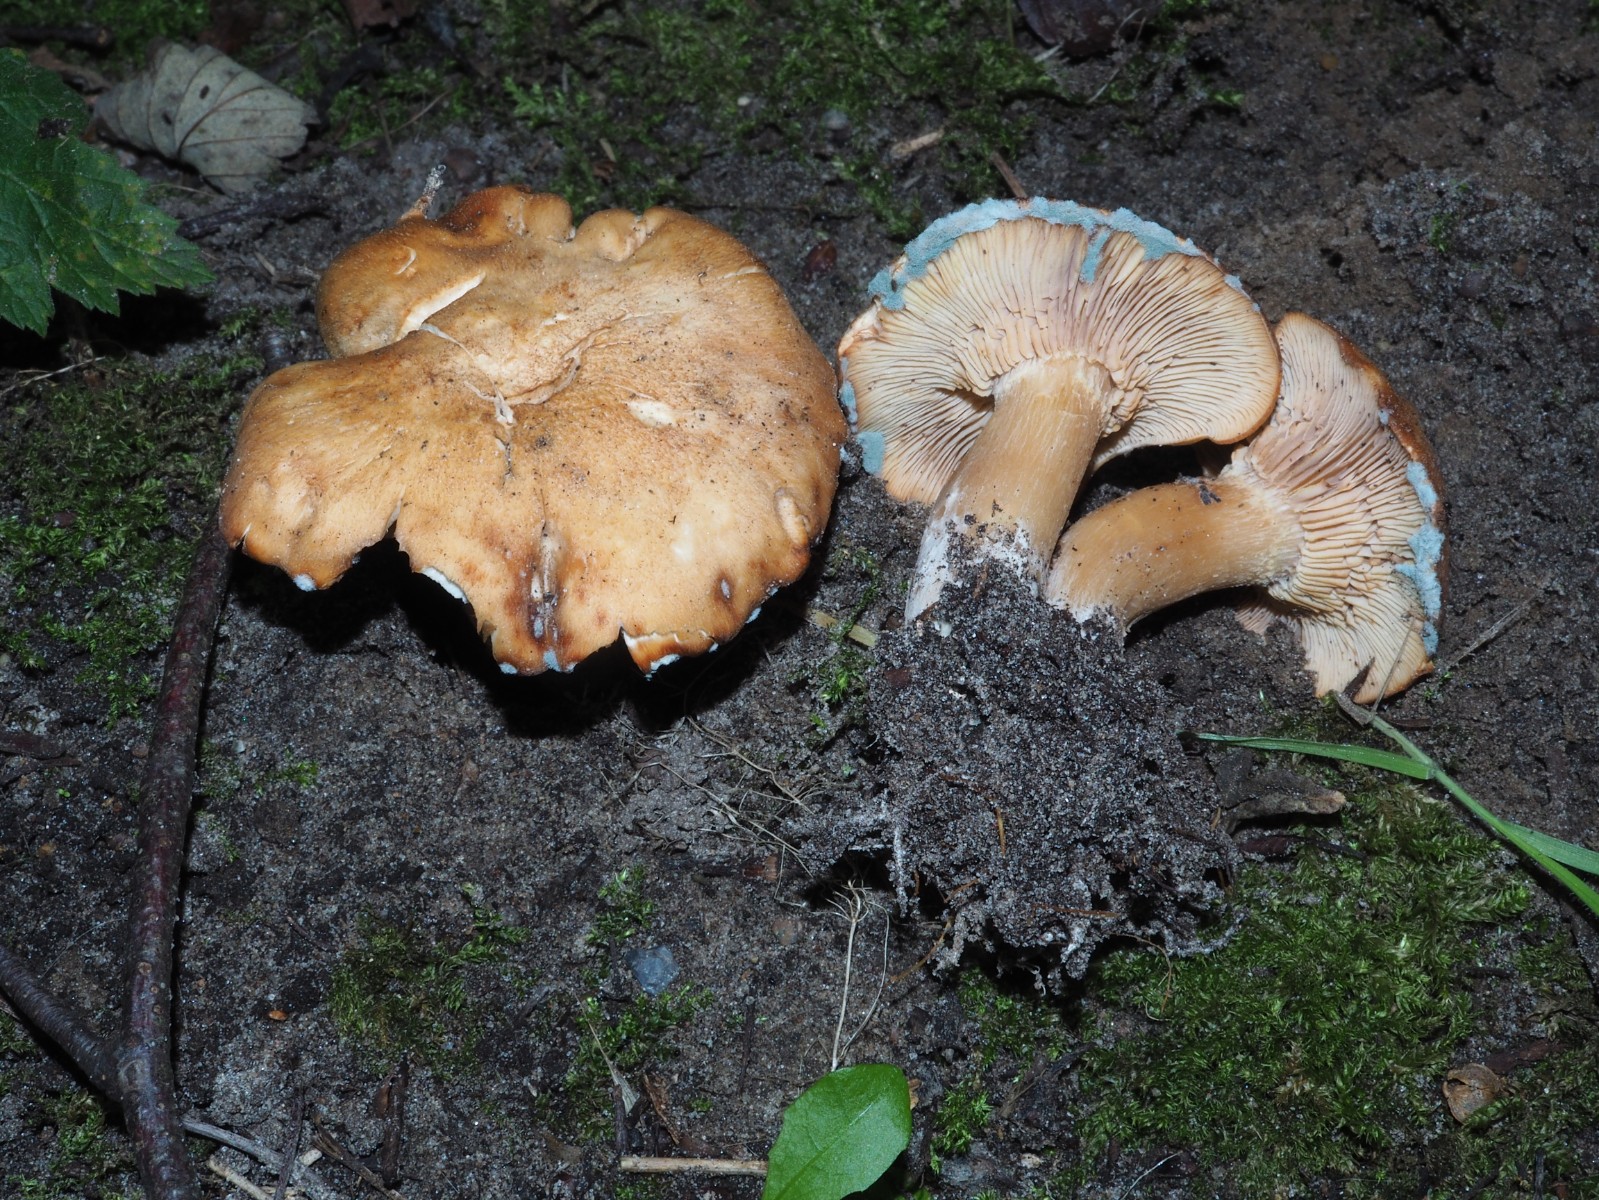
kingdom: Fungi
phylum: Basidiomycota
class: Agaricomycetes
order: Agaricales
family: Entolomataceae
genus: Clitopilus
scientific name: Clitopilus geminus
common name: kødfarvet troldhat
